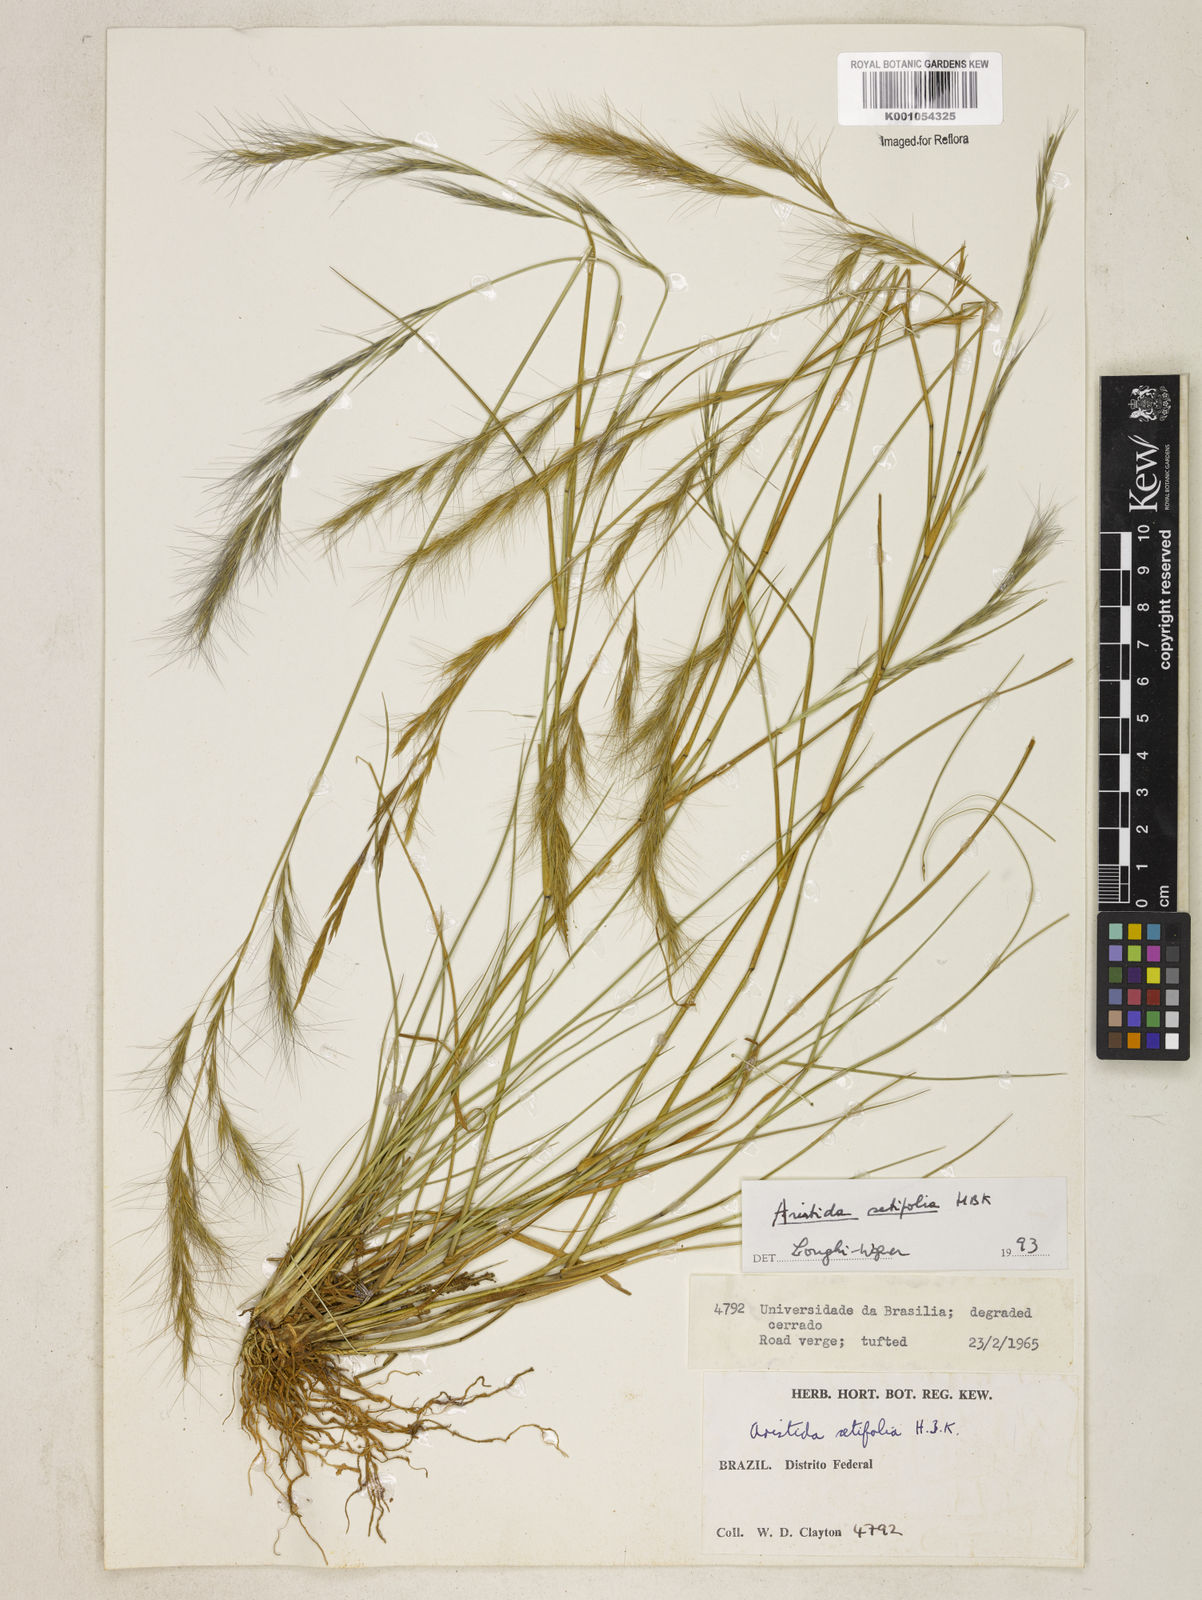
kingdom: Plantae
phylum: Tracheophyta
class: Liliopsida
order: Poales
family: Poaceae
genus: Aristida
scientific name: Aristida setifolia
